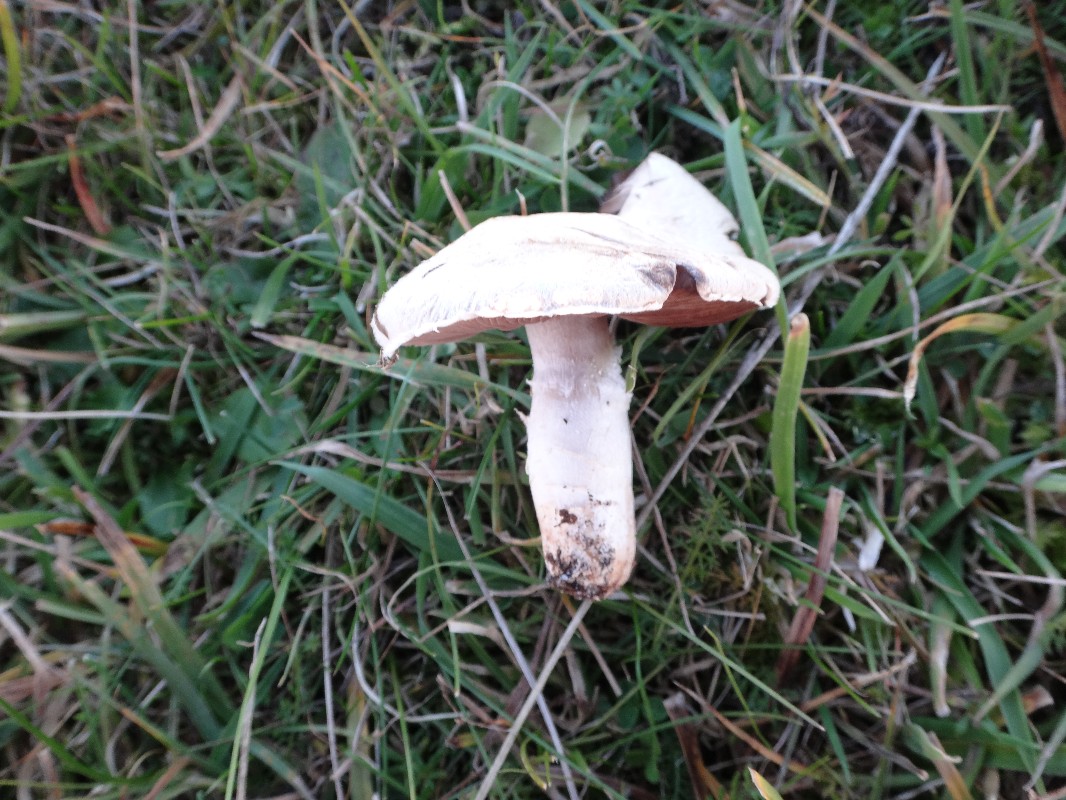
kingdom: Fungi
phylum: Basidiomycota
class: Agaricomycetes
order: Agaricales
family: Agaricaceae
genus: Agaricus
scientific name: Agaricus campestris
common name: mark-champignon
